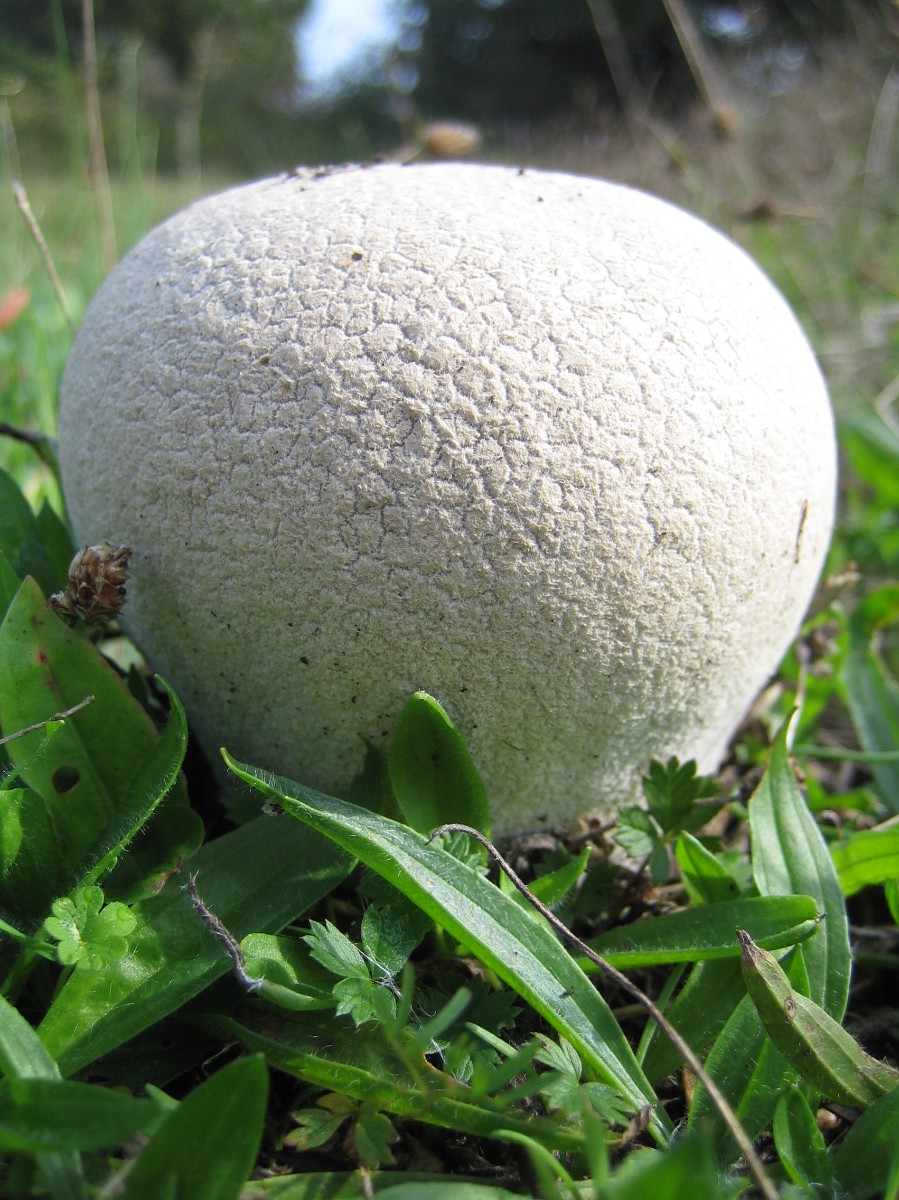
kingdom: Fungi
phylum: Basidiomycota
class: Agaricomycetes
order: Agaricales
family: Lycoperdaceae
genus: Bovistella
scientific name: Bovistella utriformis
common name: skællet støvbold
